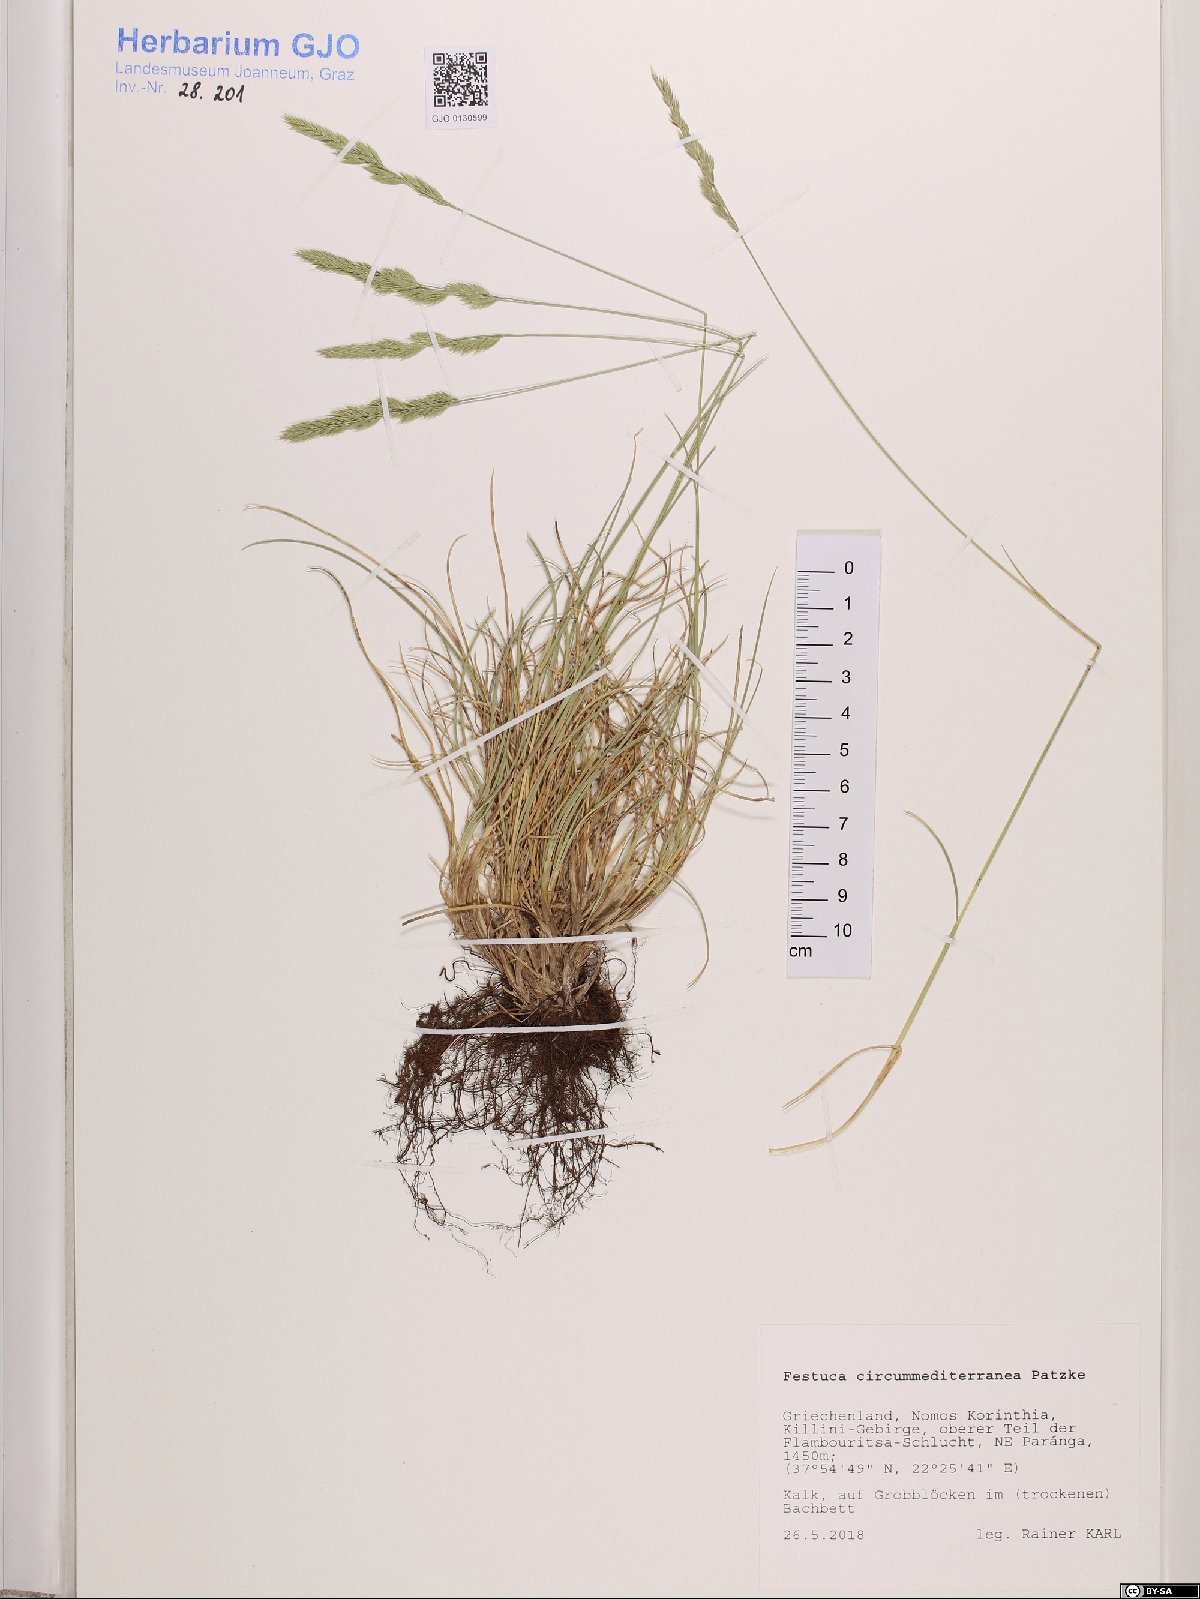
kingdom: Plantae
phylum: Tracheophyta
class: Liliopsida
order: Poales
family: Poaceae
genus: Festuca
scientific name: Festuca circummediterranea
